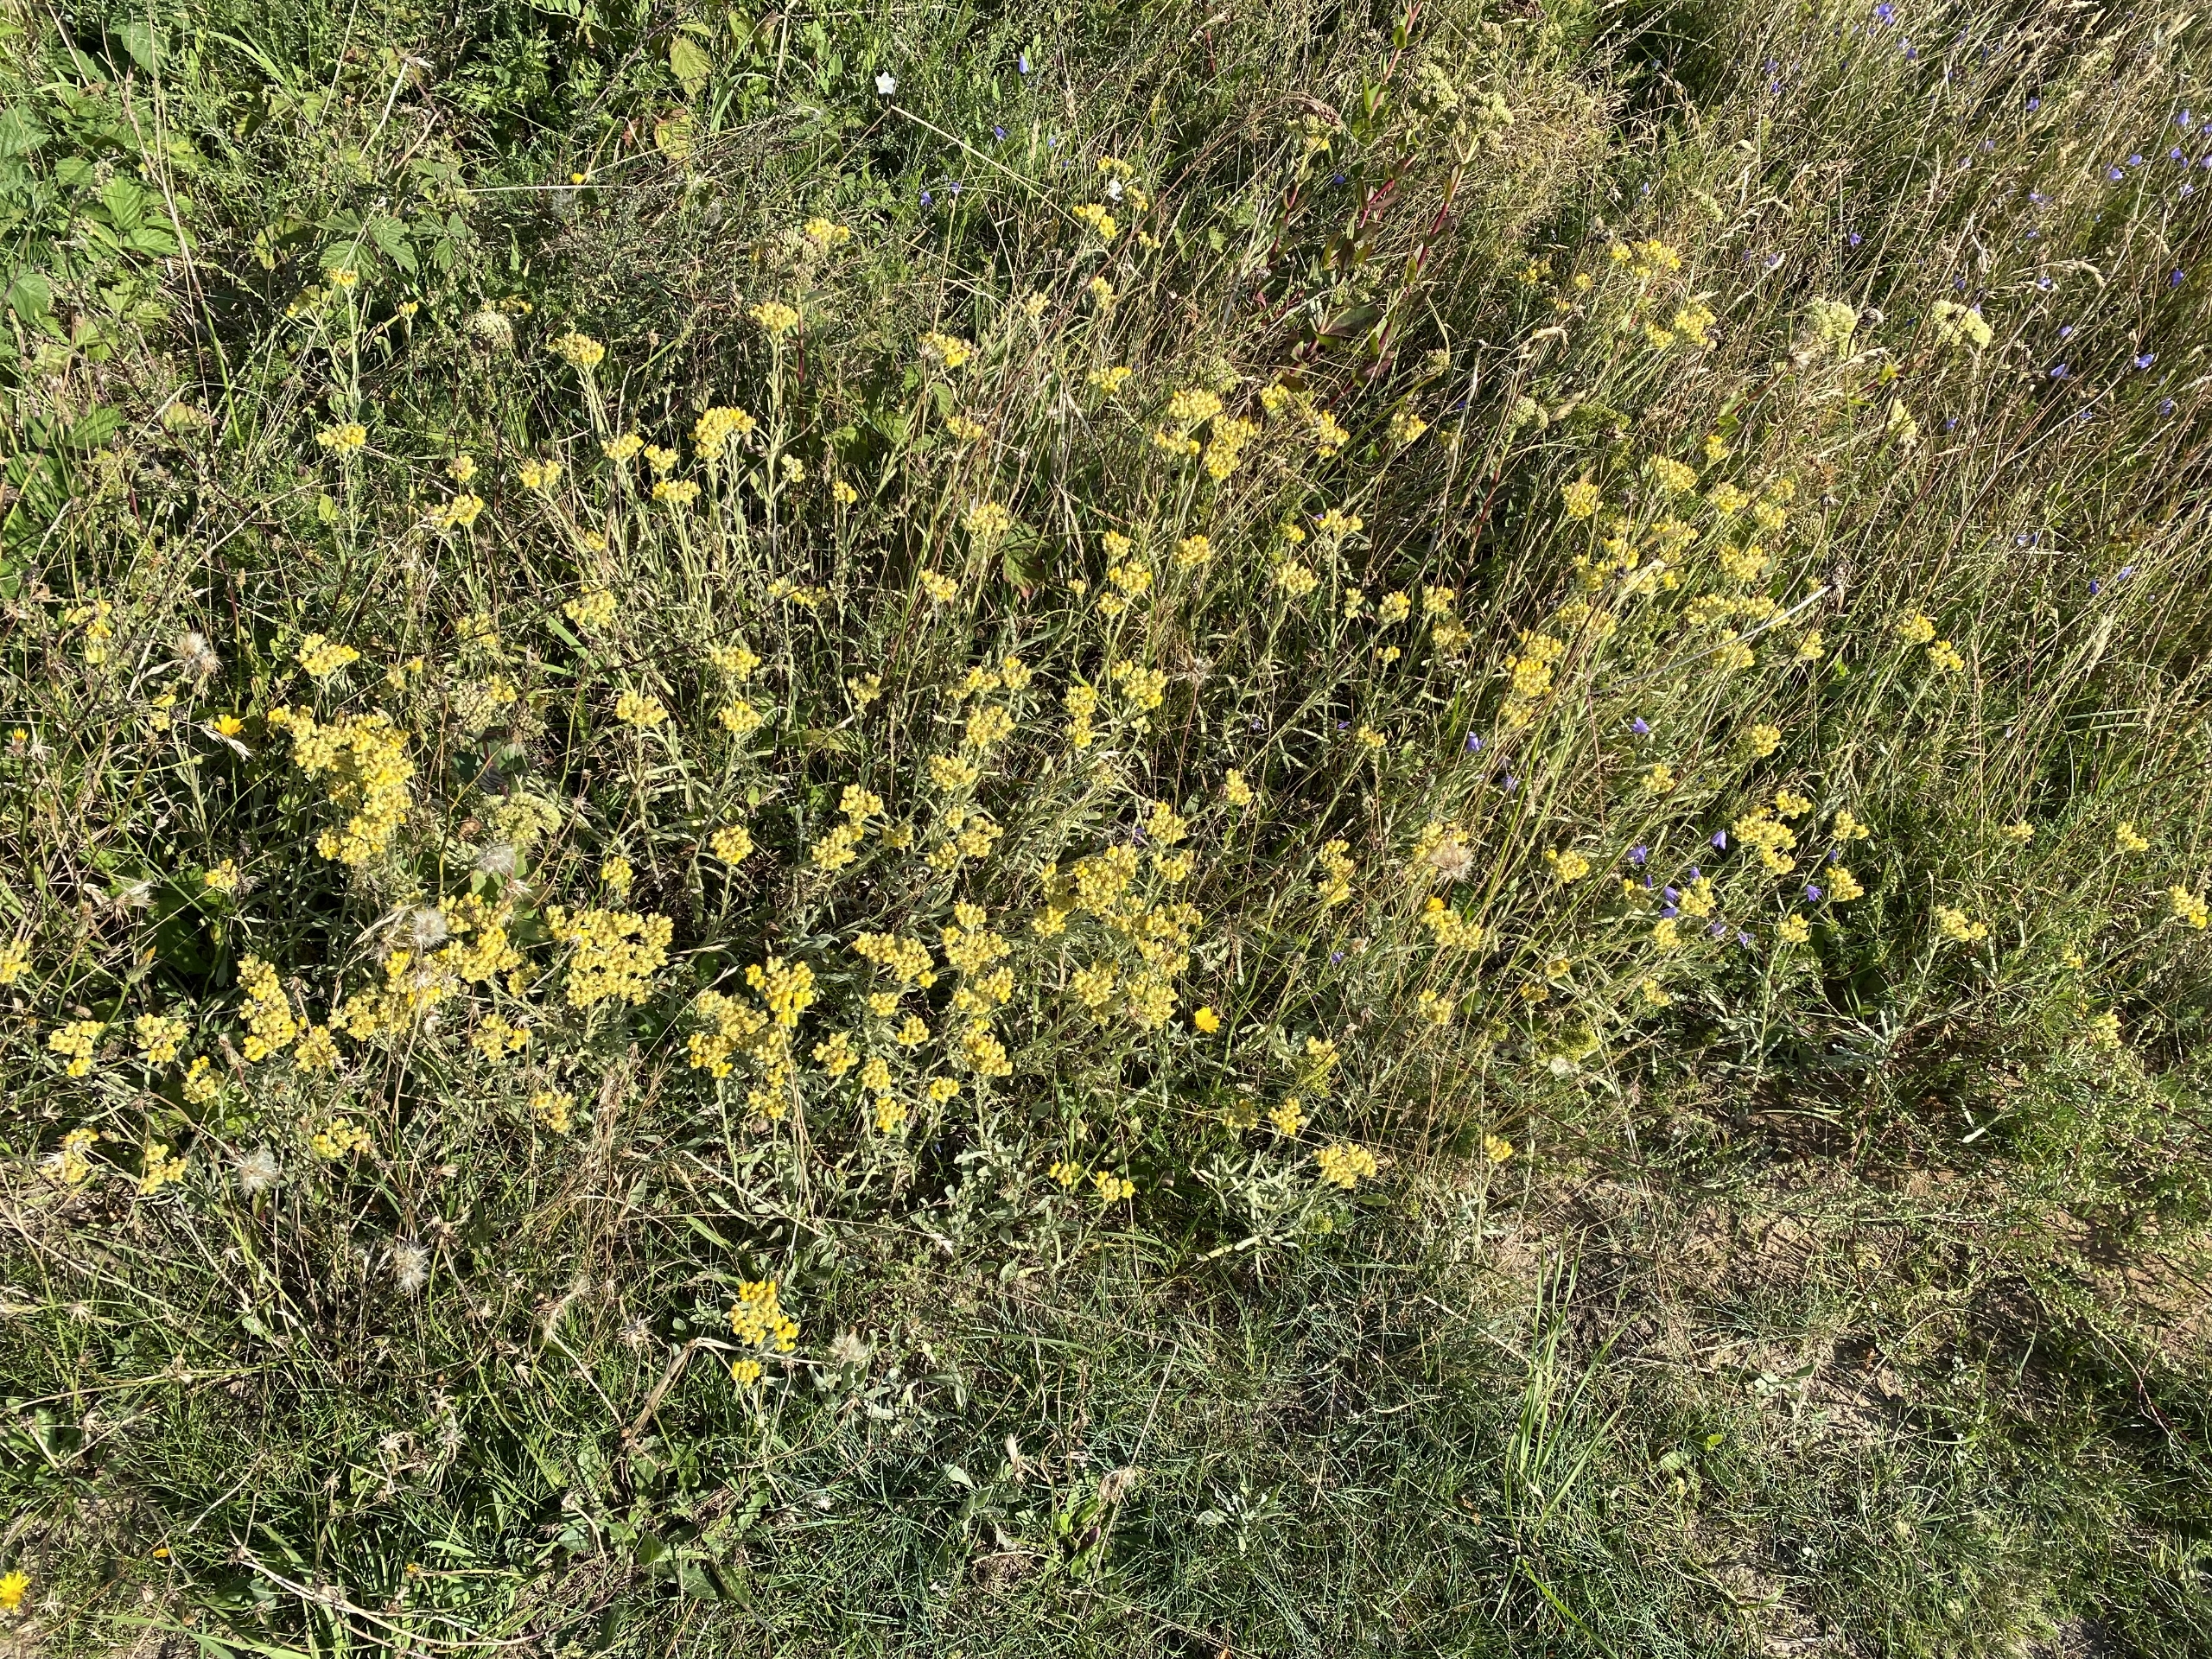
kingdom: Plantae
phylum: Tracheophyta
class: Magnoliopsida
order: Asterales
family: Asteraceae
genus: Helichrysum
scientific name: Helichrysum arenarium
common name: Gul evighedsblomst
